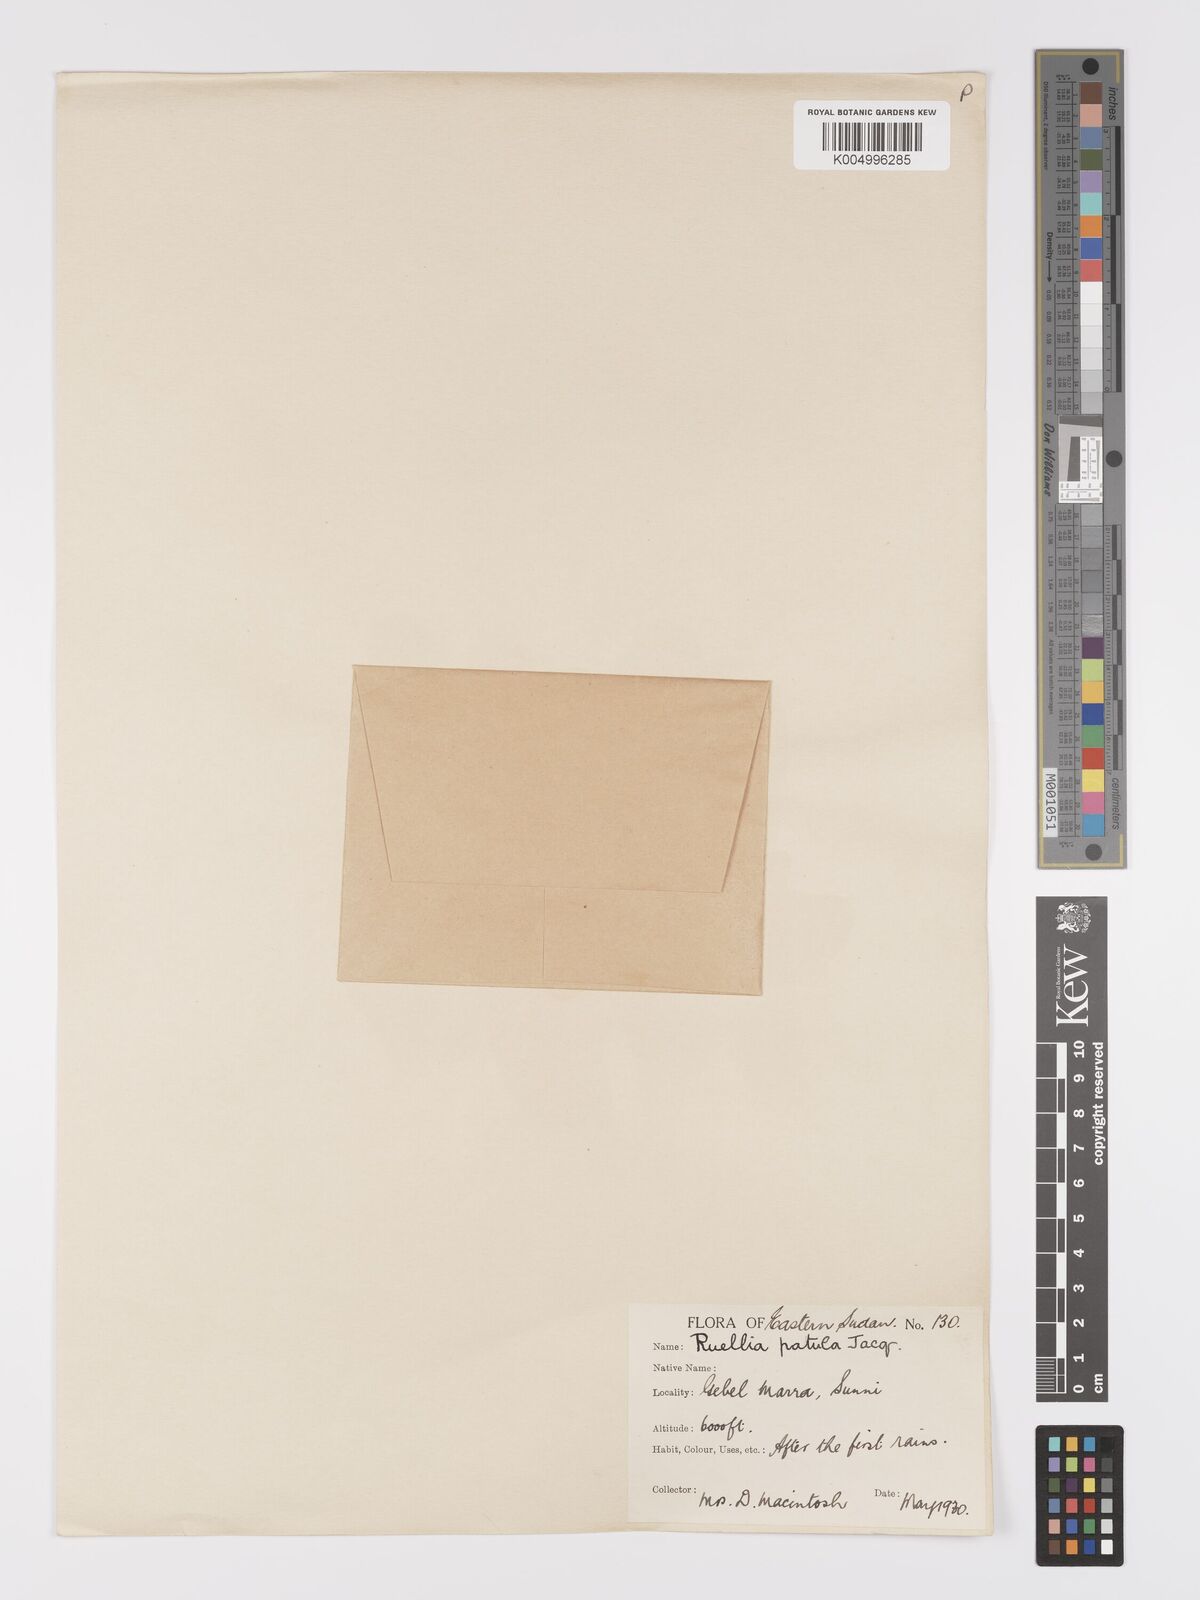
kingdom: Plantae
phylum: Tracheophyta
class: Magnoliopsida
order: Lamiales
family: Acanthaceae
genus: Ruellia
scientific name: Ruellia patula
